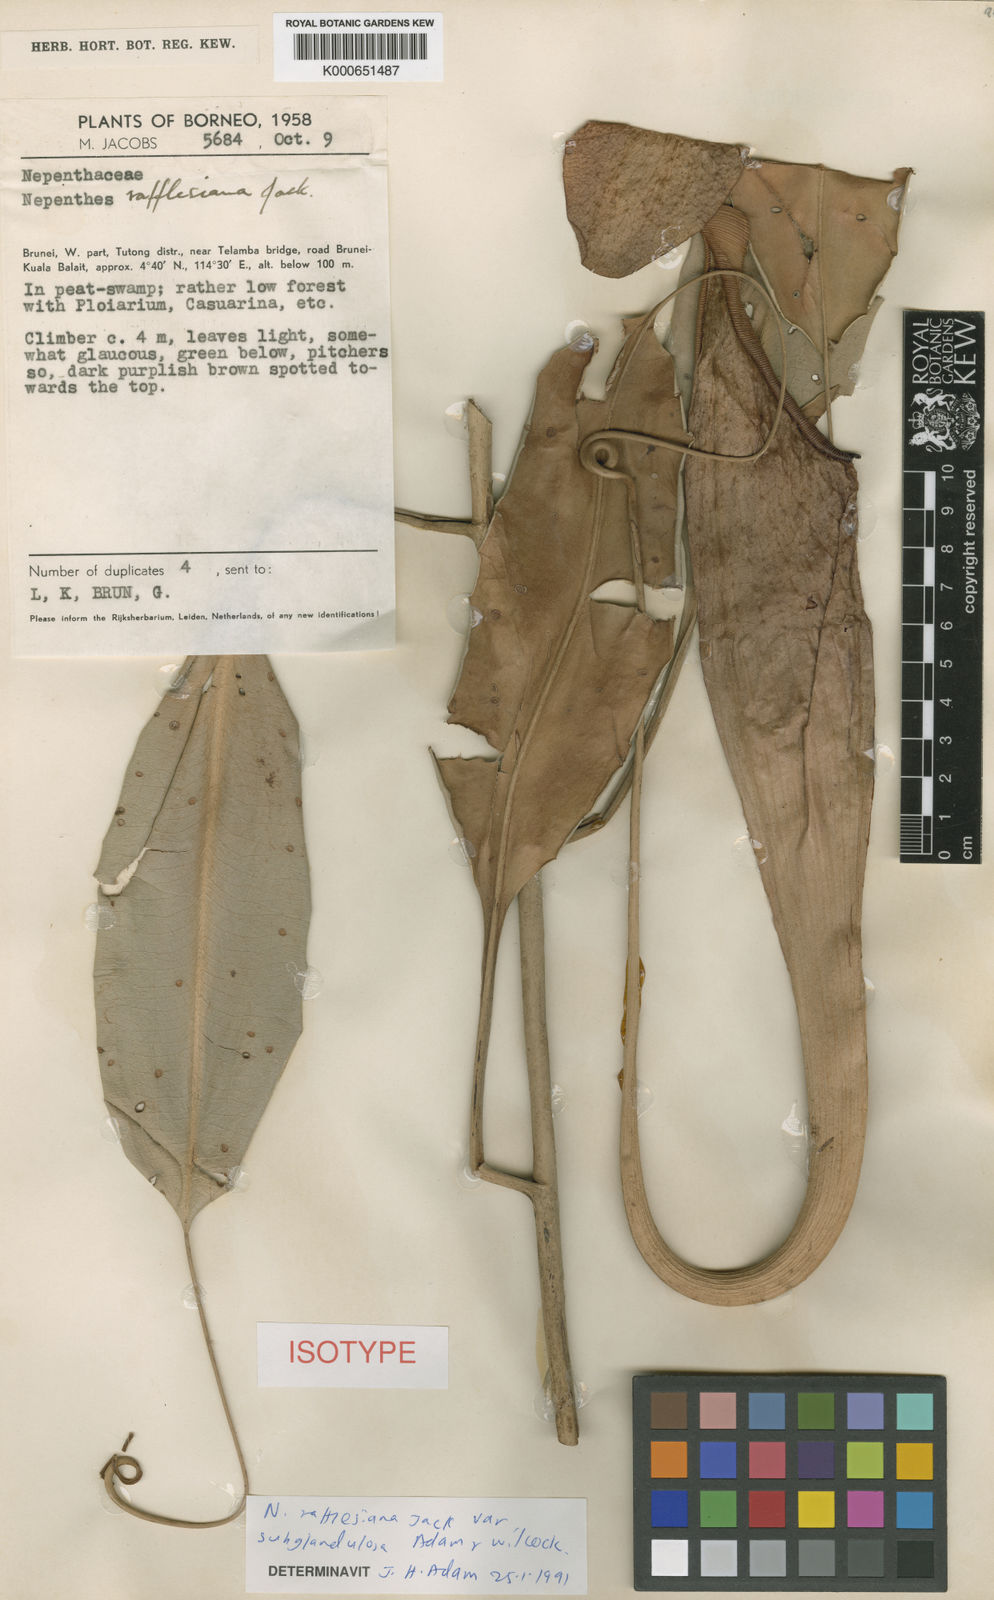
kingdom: Plantae
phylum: Tracheophyta
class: Magnoliopsida
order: Caryophyllales
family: Nepenthaceae
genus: Nepenthes
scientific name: Nepenthes rafflesiana
